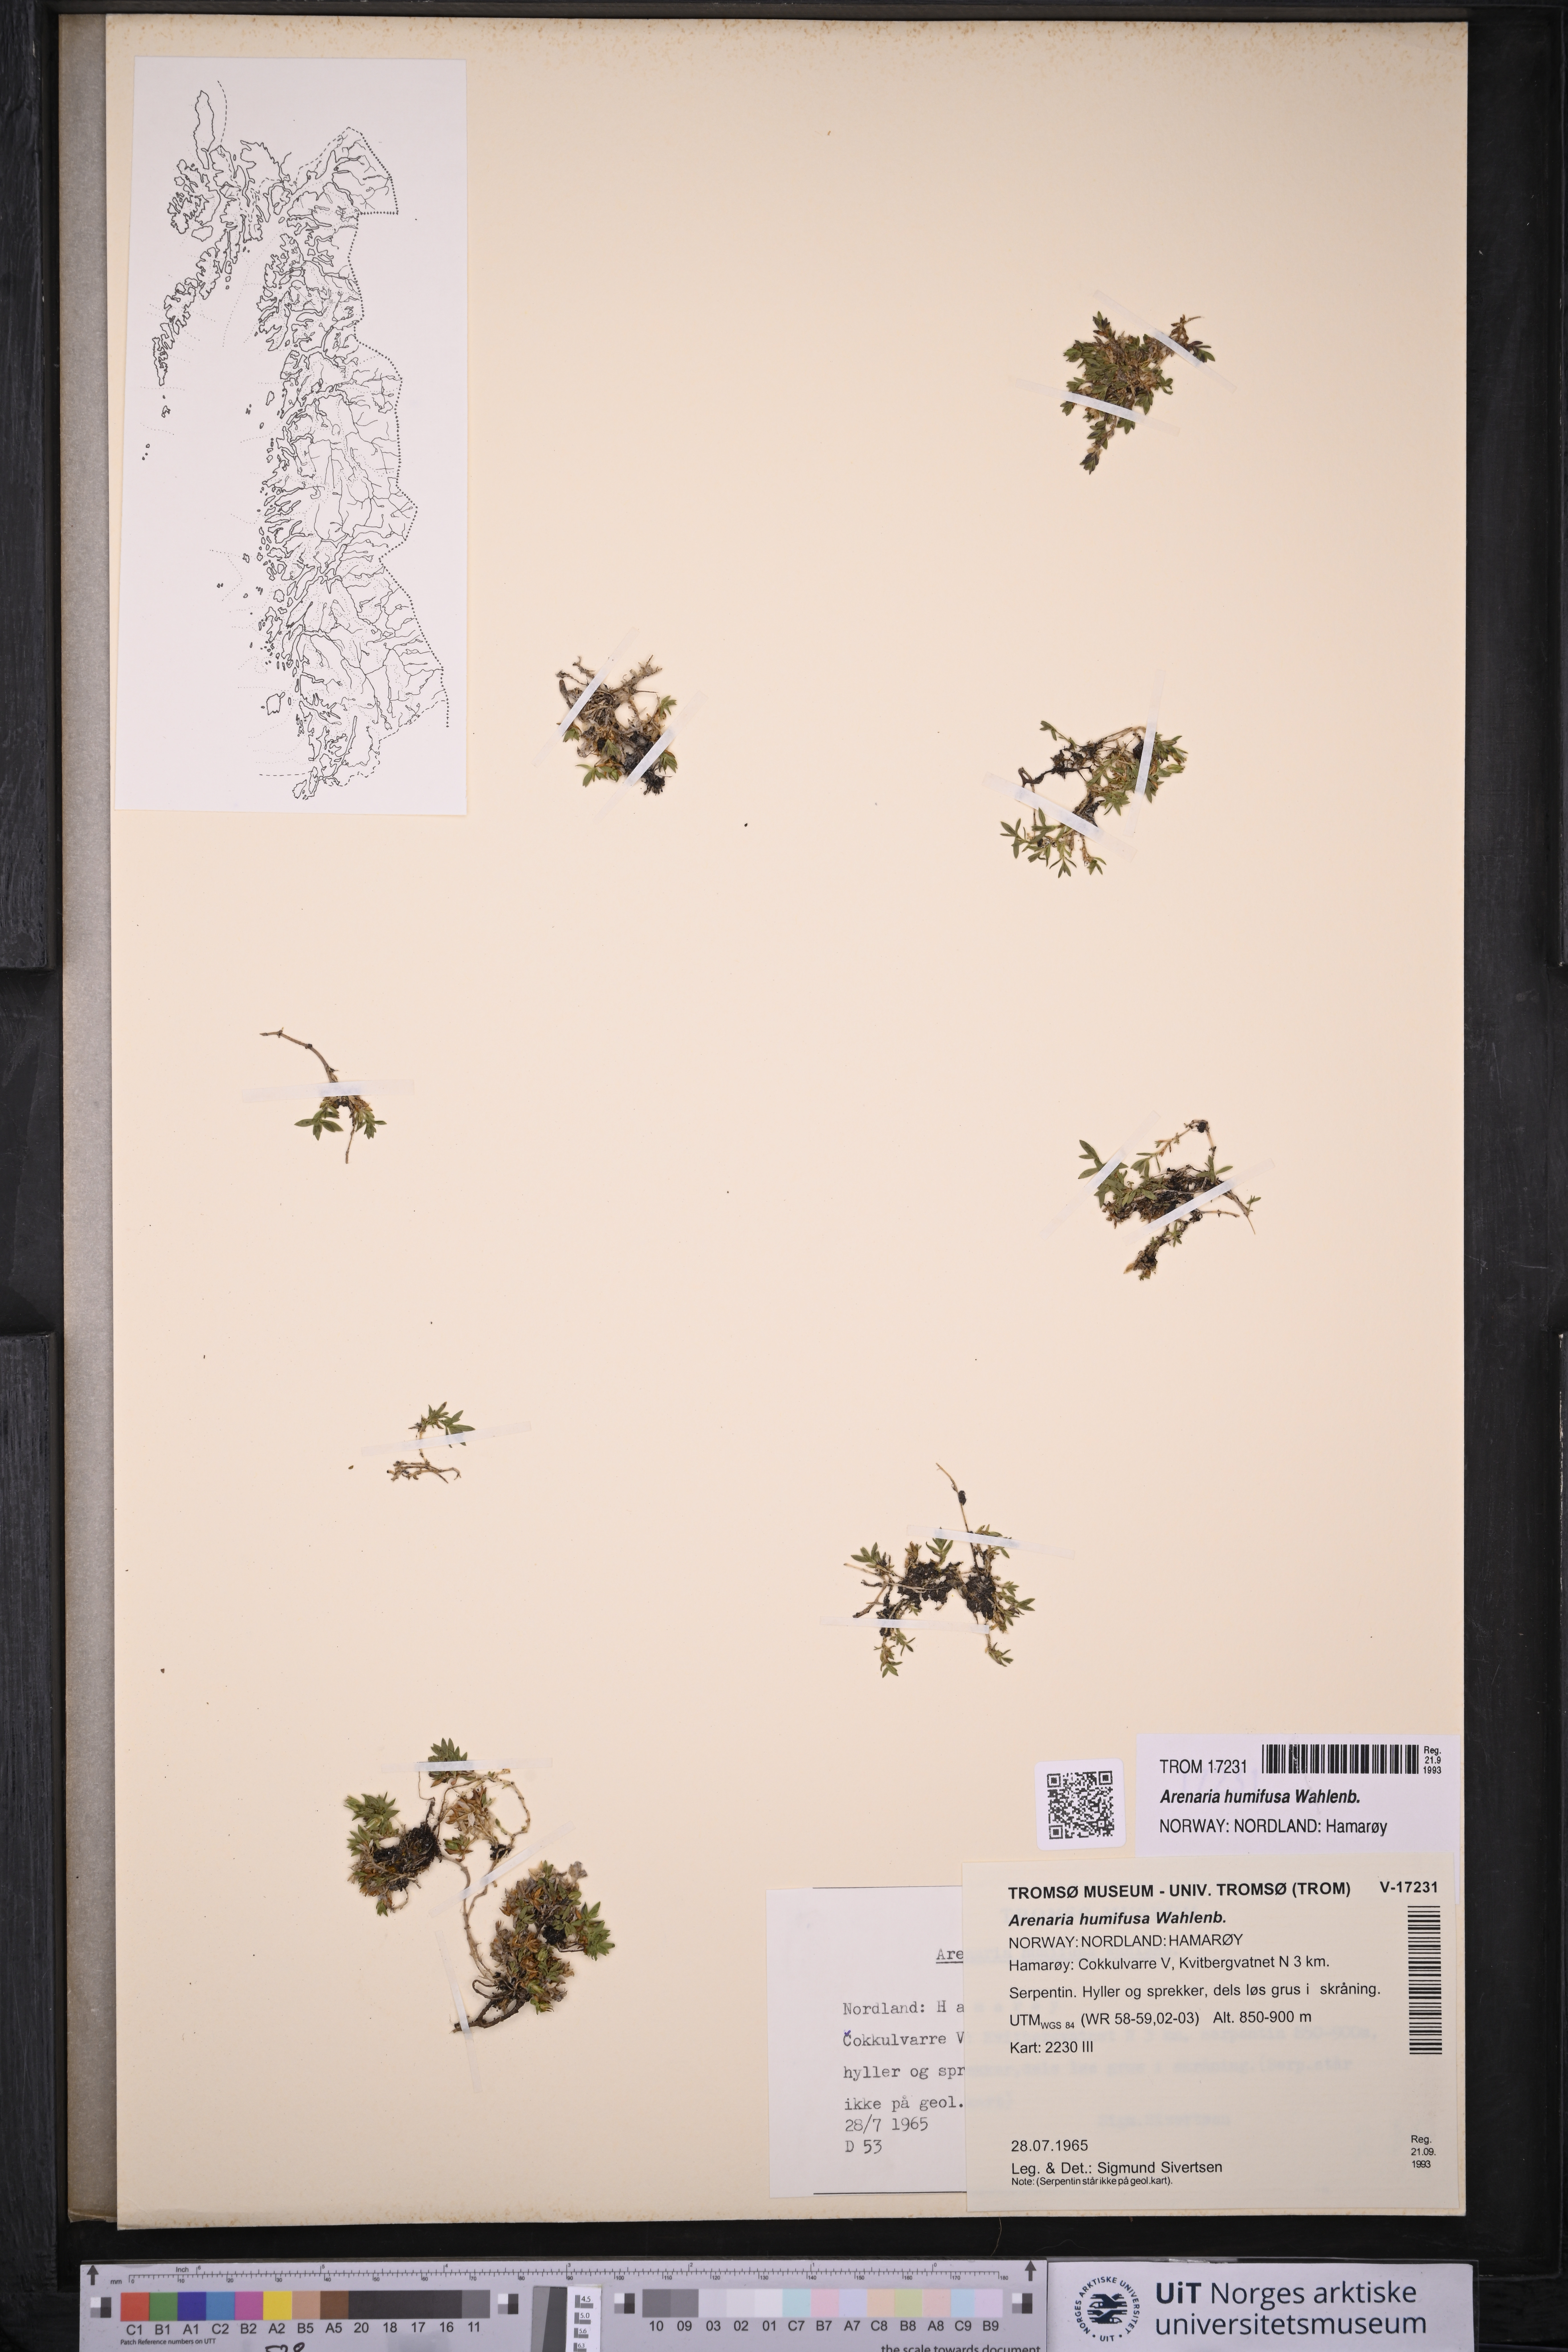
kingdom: Plantae
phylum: Tracheophyta
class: Magnoliopsida
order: Caryophyllales
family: Caryophyllaceae
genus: Arenaria
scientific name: Arenaria humifusa
